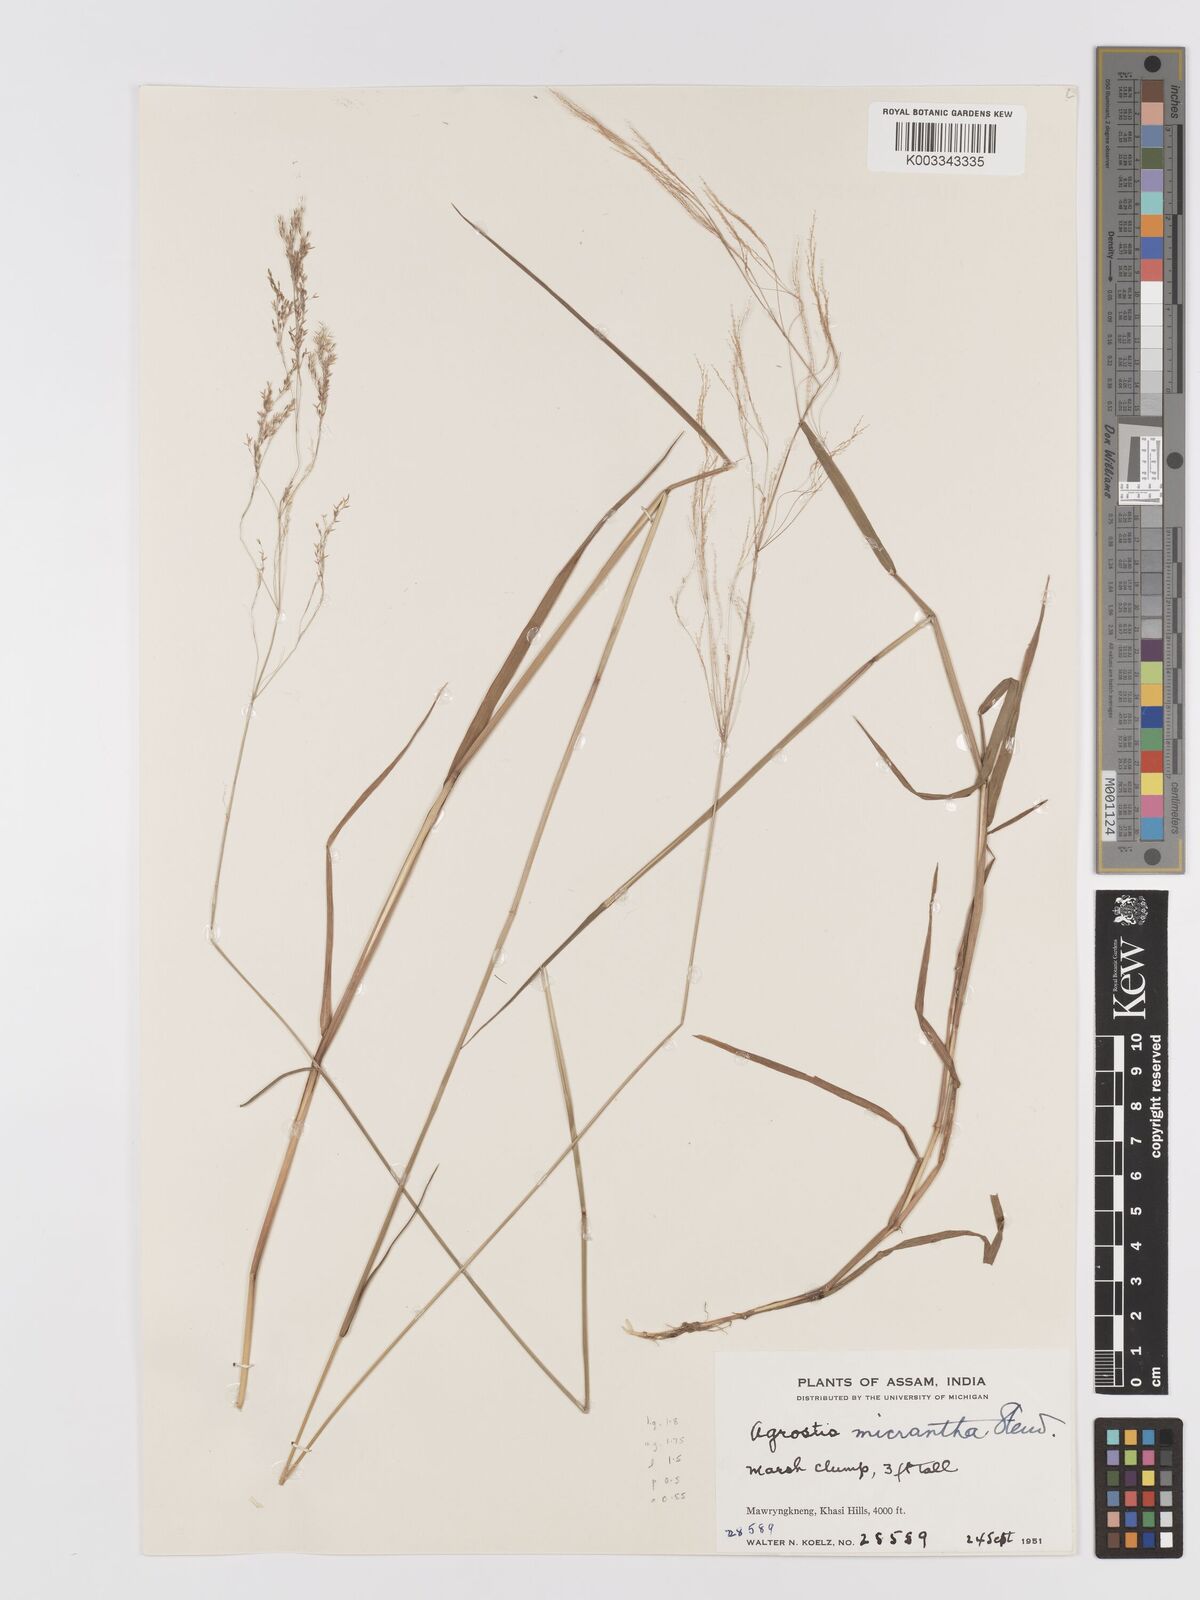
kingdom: Plantae
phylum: Tracheophyta
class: Liliopsida
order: Poales
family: Poaceae
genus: Agrostis
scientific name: Agrostis micrantha
